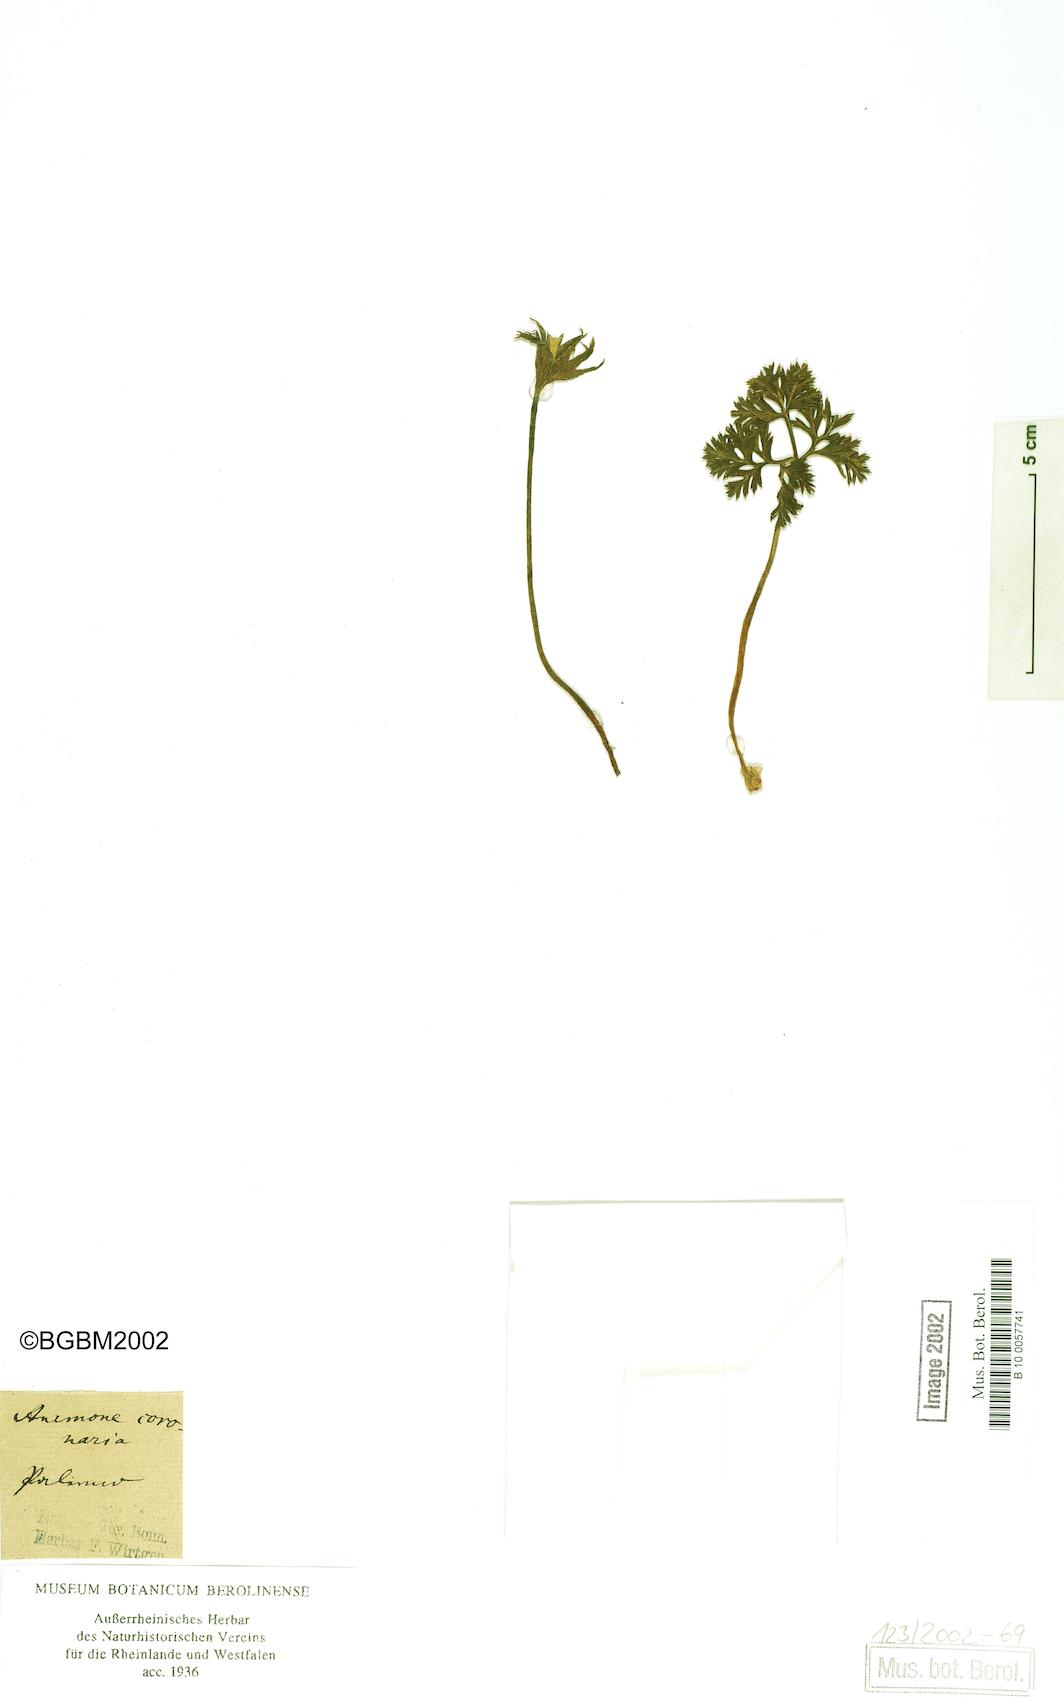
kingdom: Plantae
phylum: Tracheophyta
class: Magnoliopsida
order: Ranunculales
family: Ranunculaceae
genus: Anemone
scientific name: Anemone coronaria
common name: Poppy anemone
